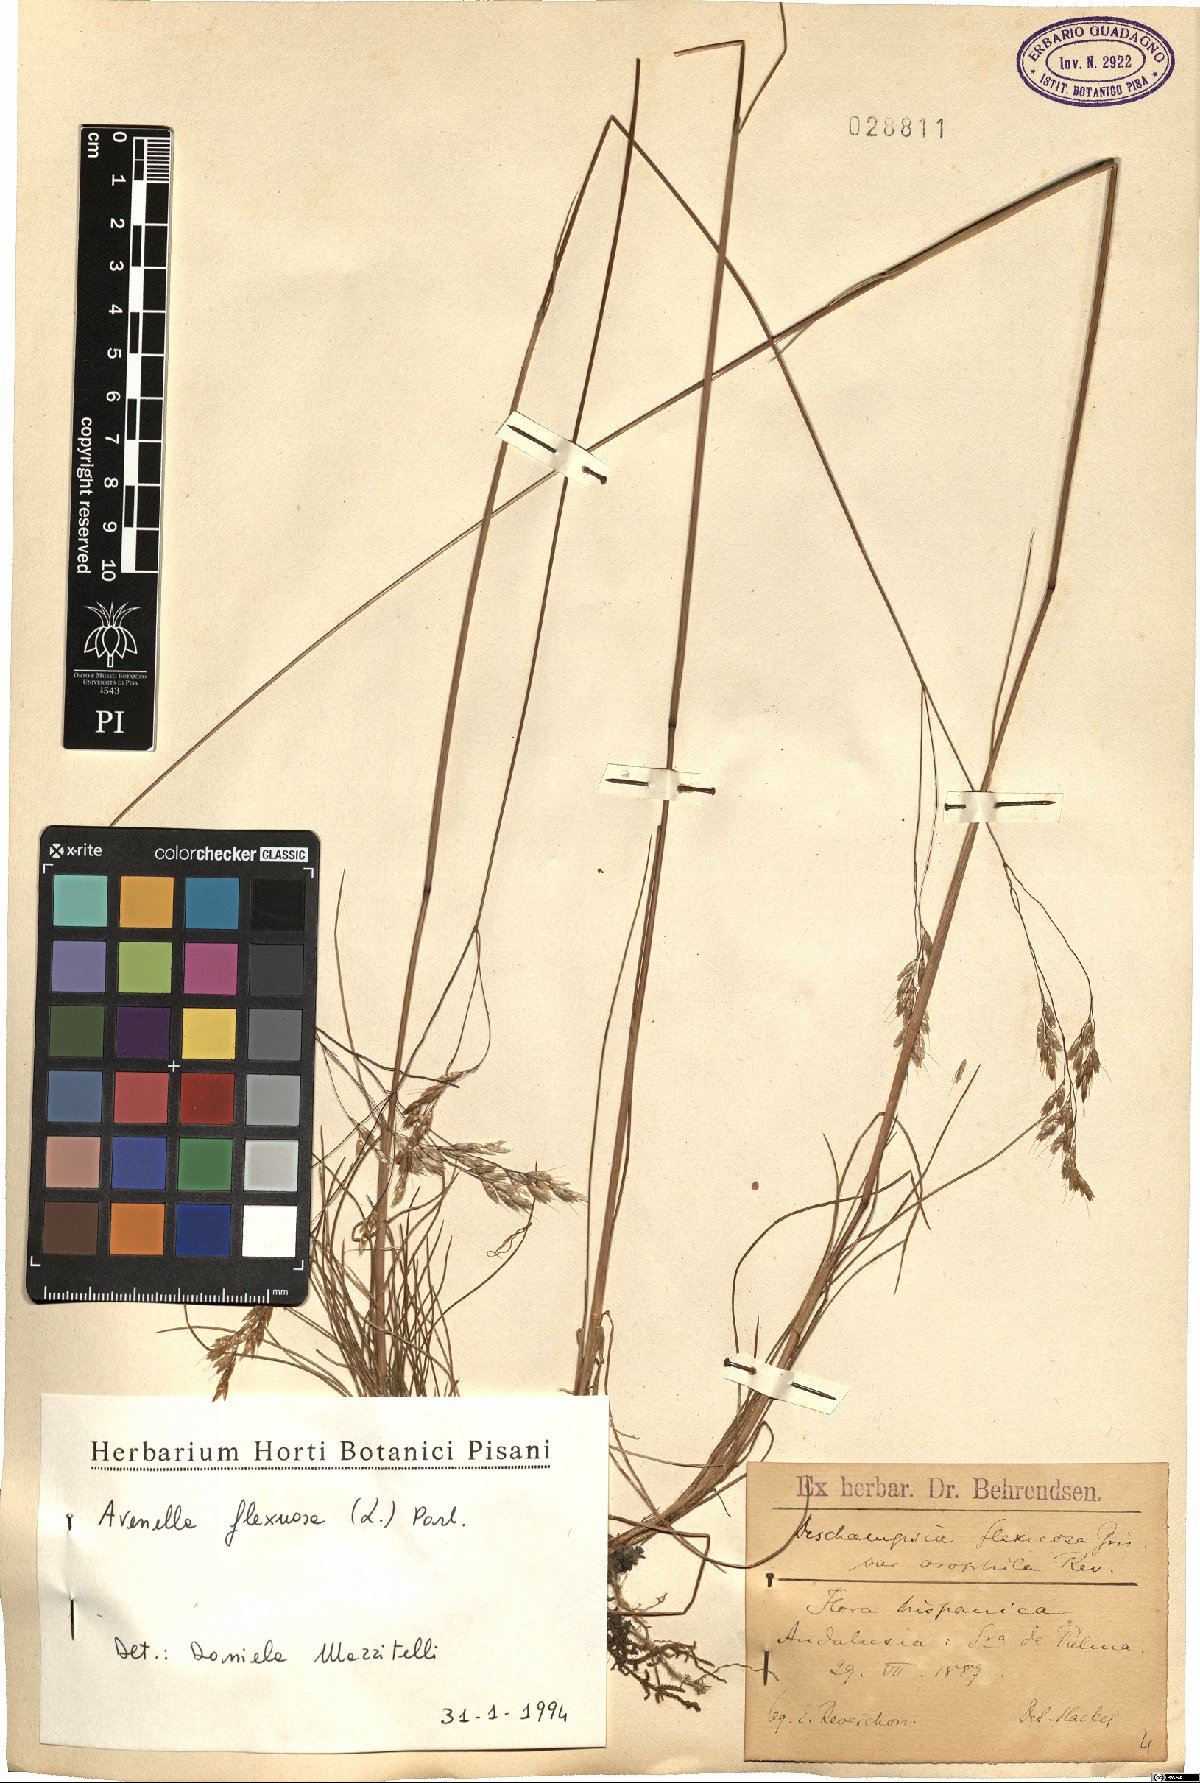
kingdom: Plantae
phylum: Tracheophyta
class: Liliopsida
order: Poales
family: Poaceae
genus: Avenella
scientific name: Avenella flexuosa
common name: Wavy hairgrass
